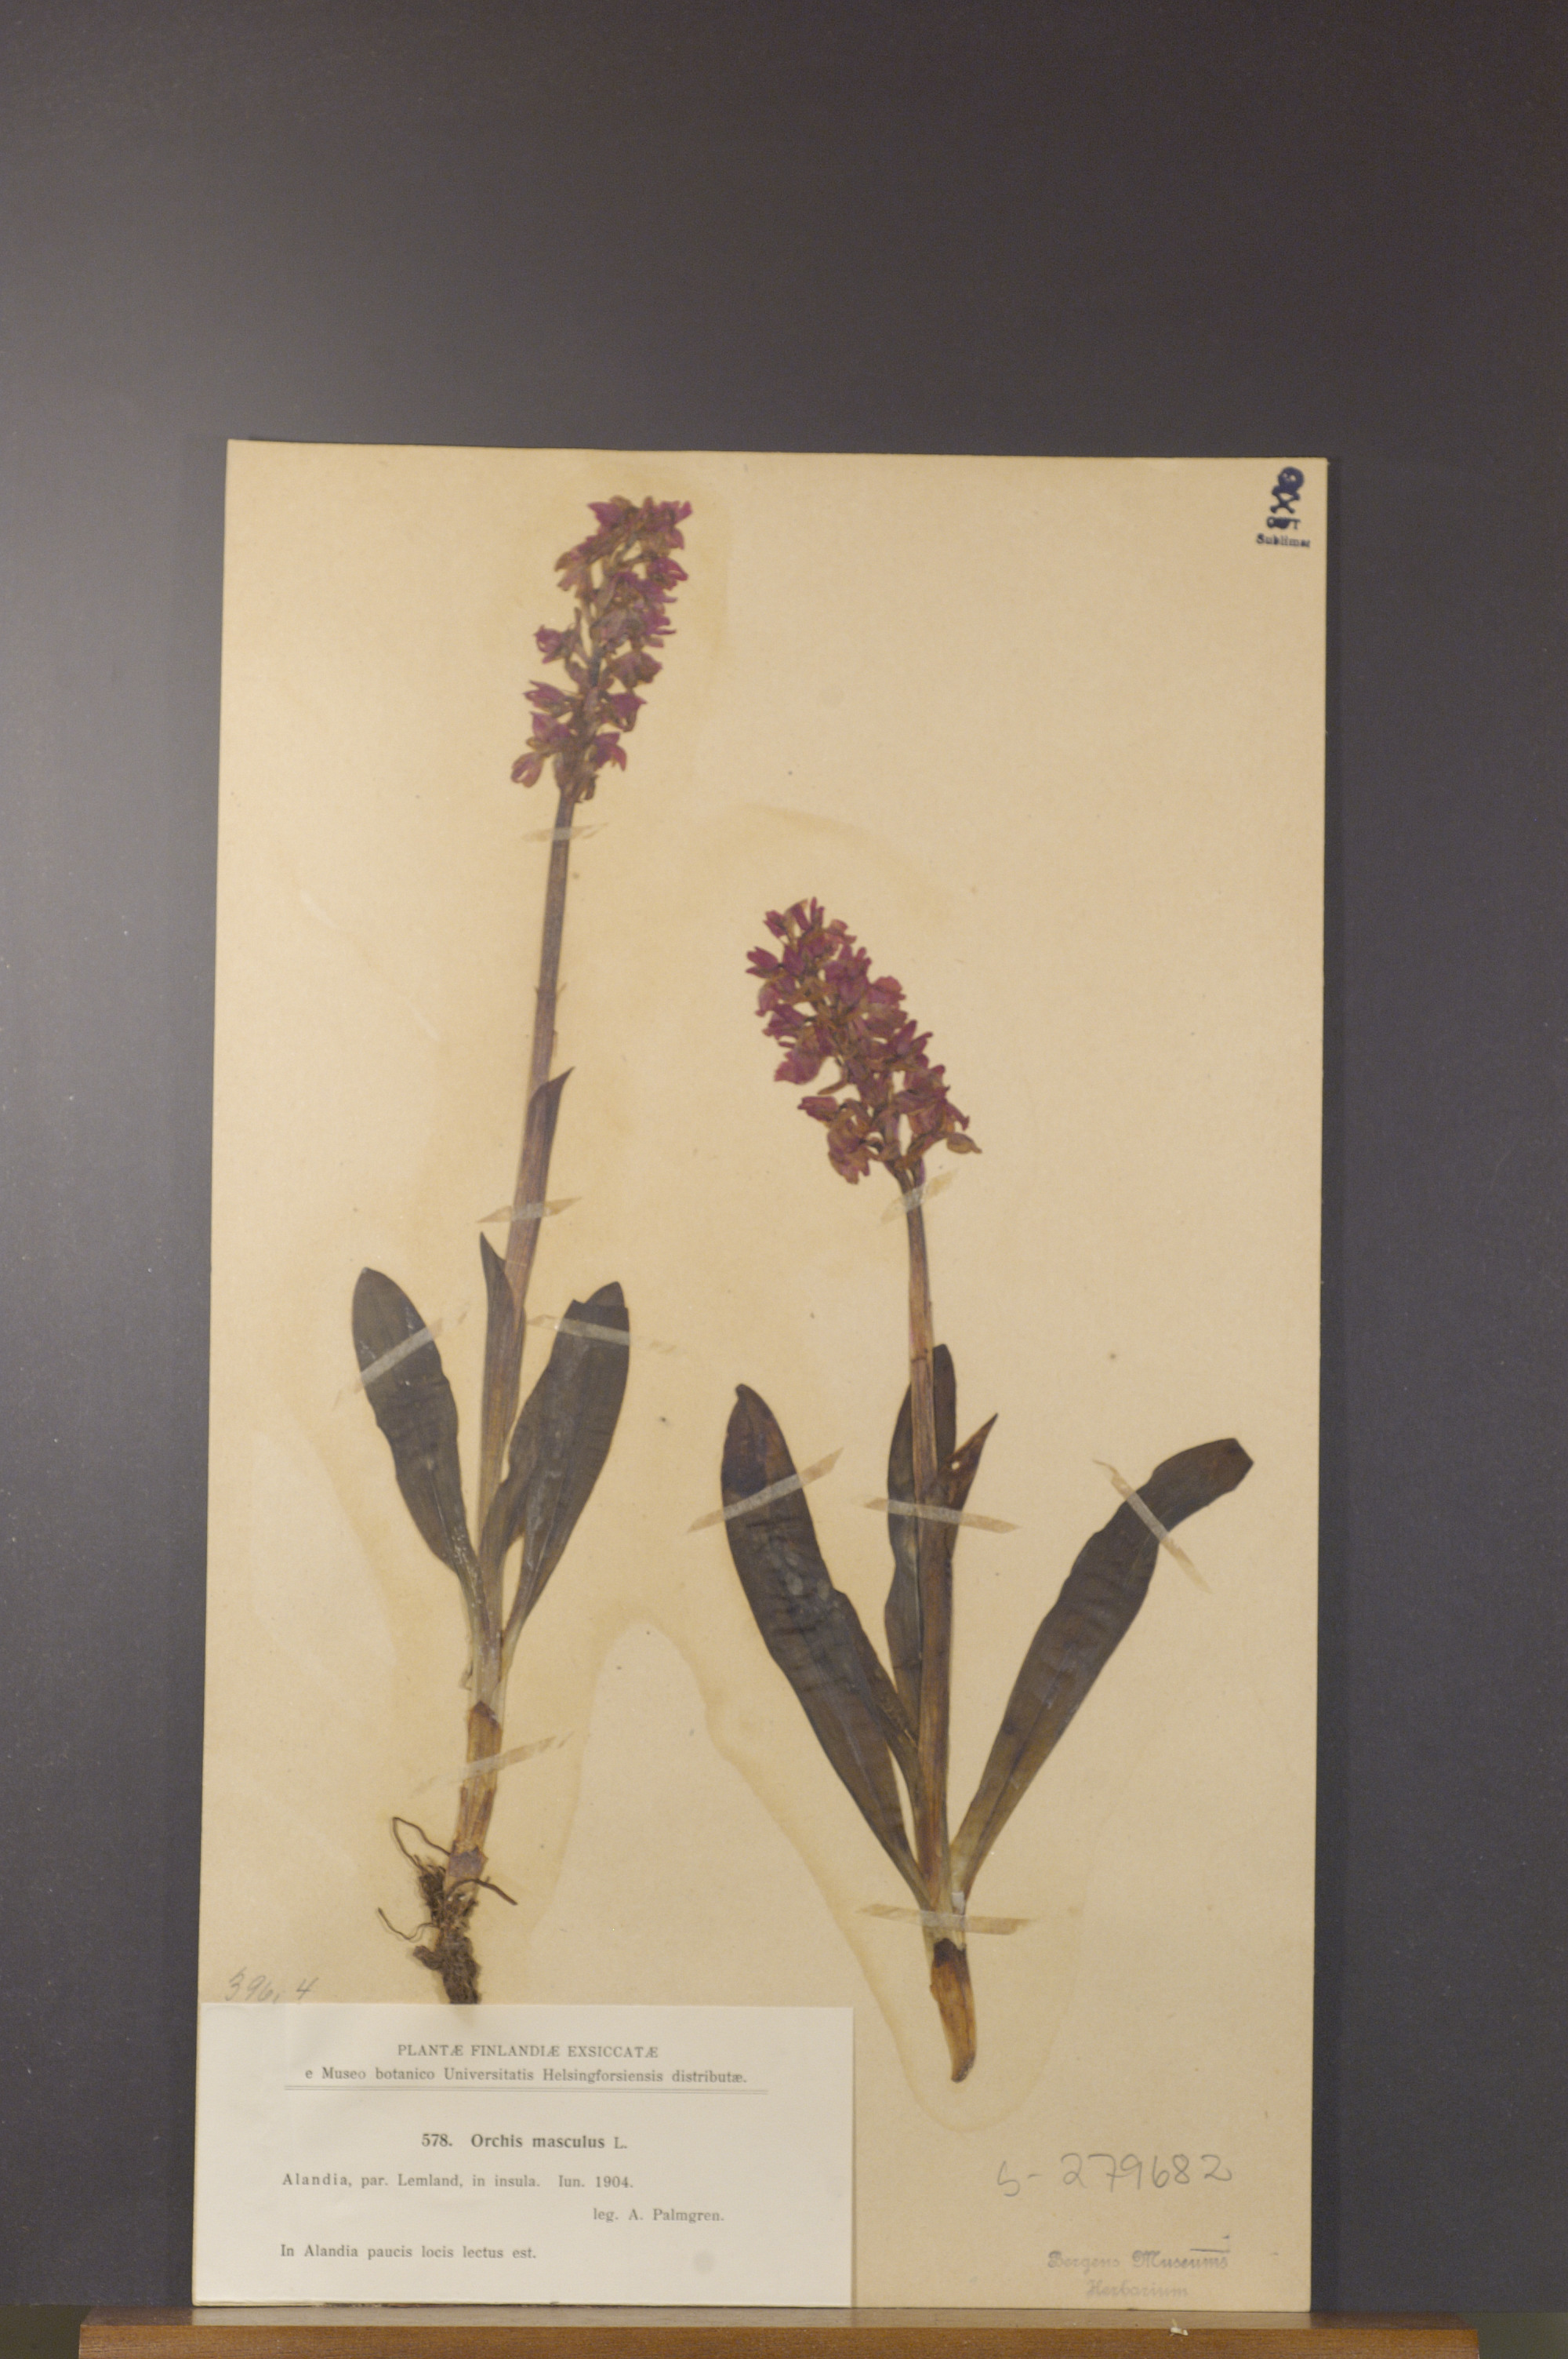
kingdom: Plantae
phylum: Tracheophyta
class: Liliopsida
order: Asparagales
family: Orchidaceae
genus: Orchis
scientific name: Orchis mascula
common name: Early-purple orchid
